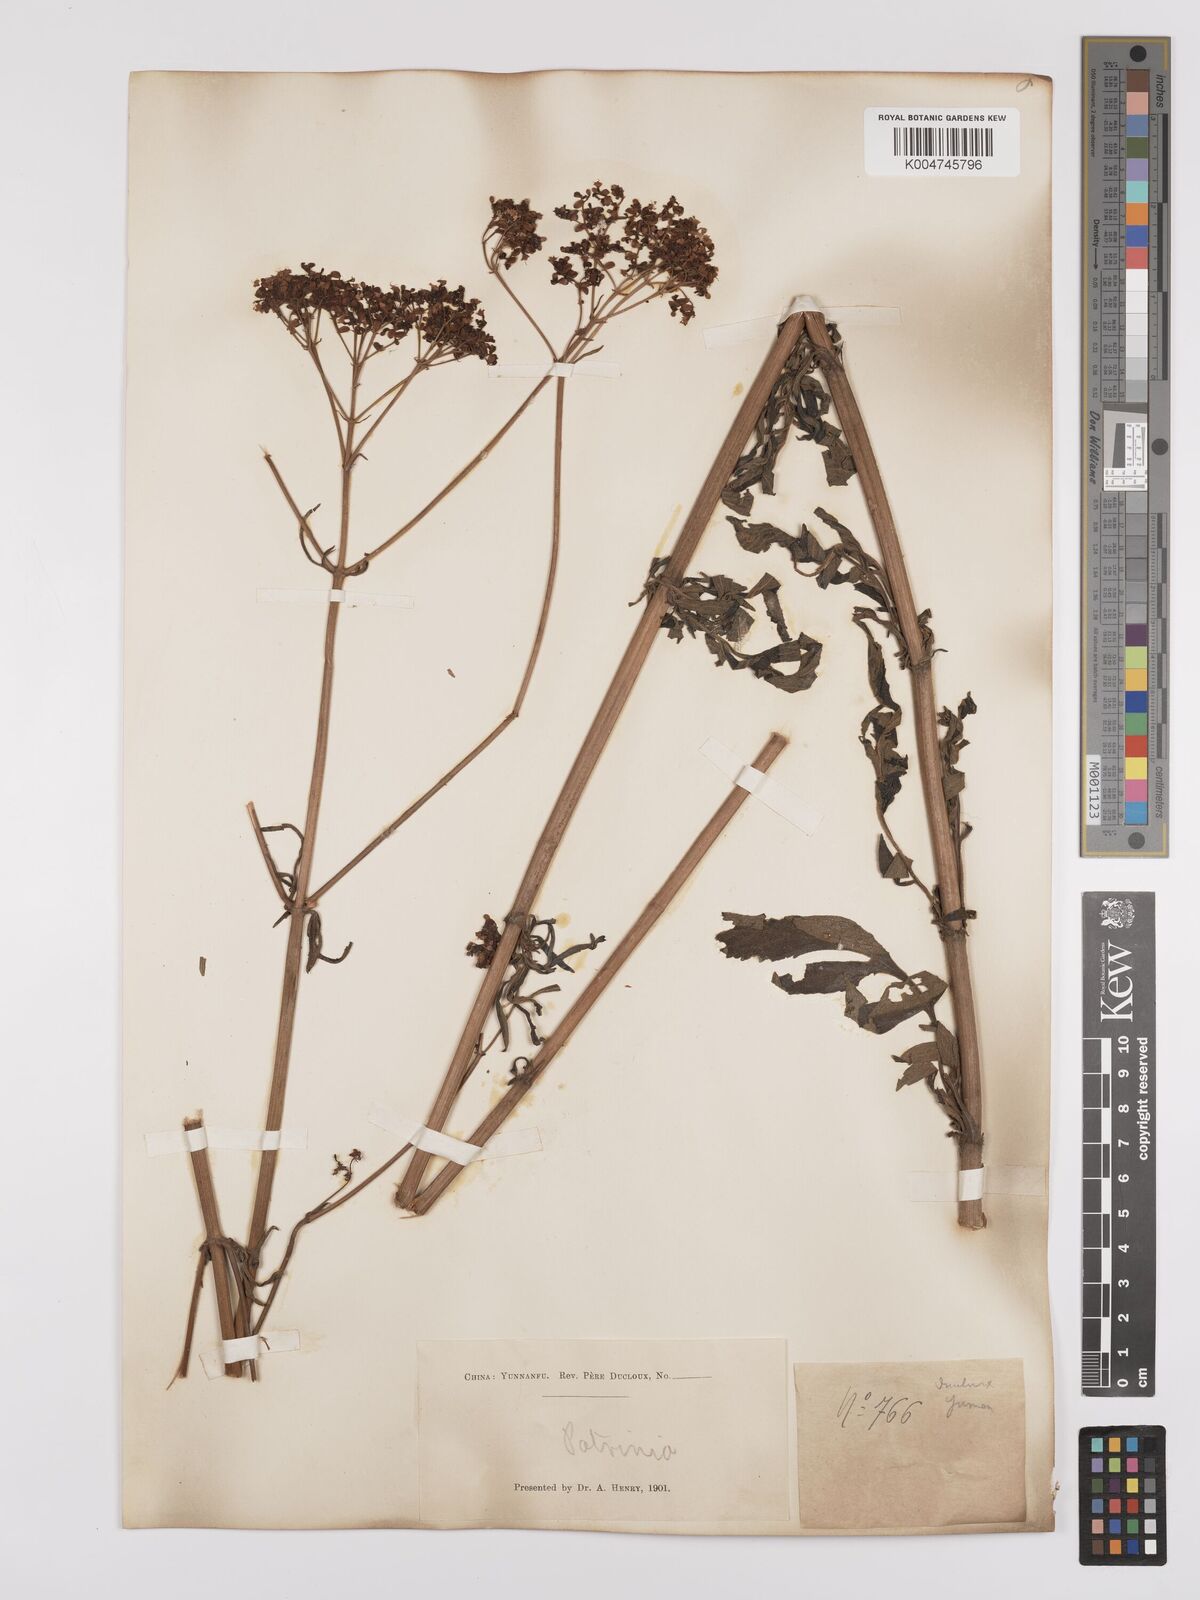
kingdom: Plantae
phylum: Tracheophyta
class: Magnoliopsida
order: Dipsacales
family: Caprifoliaceae
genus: Patrinia
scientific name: Patrinia scabiosifolia
